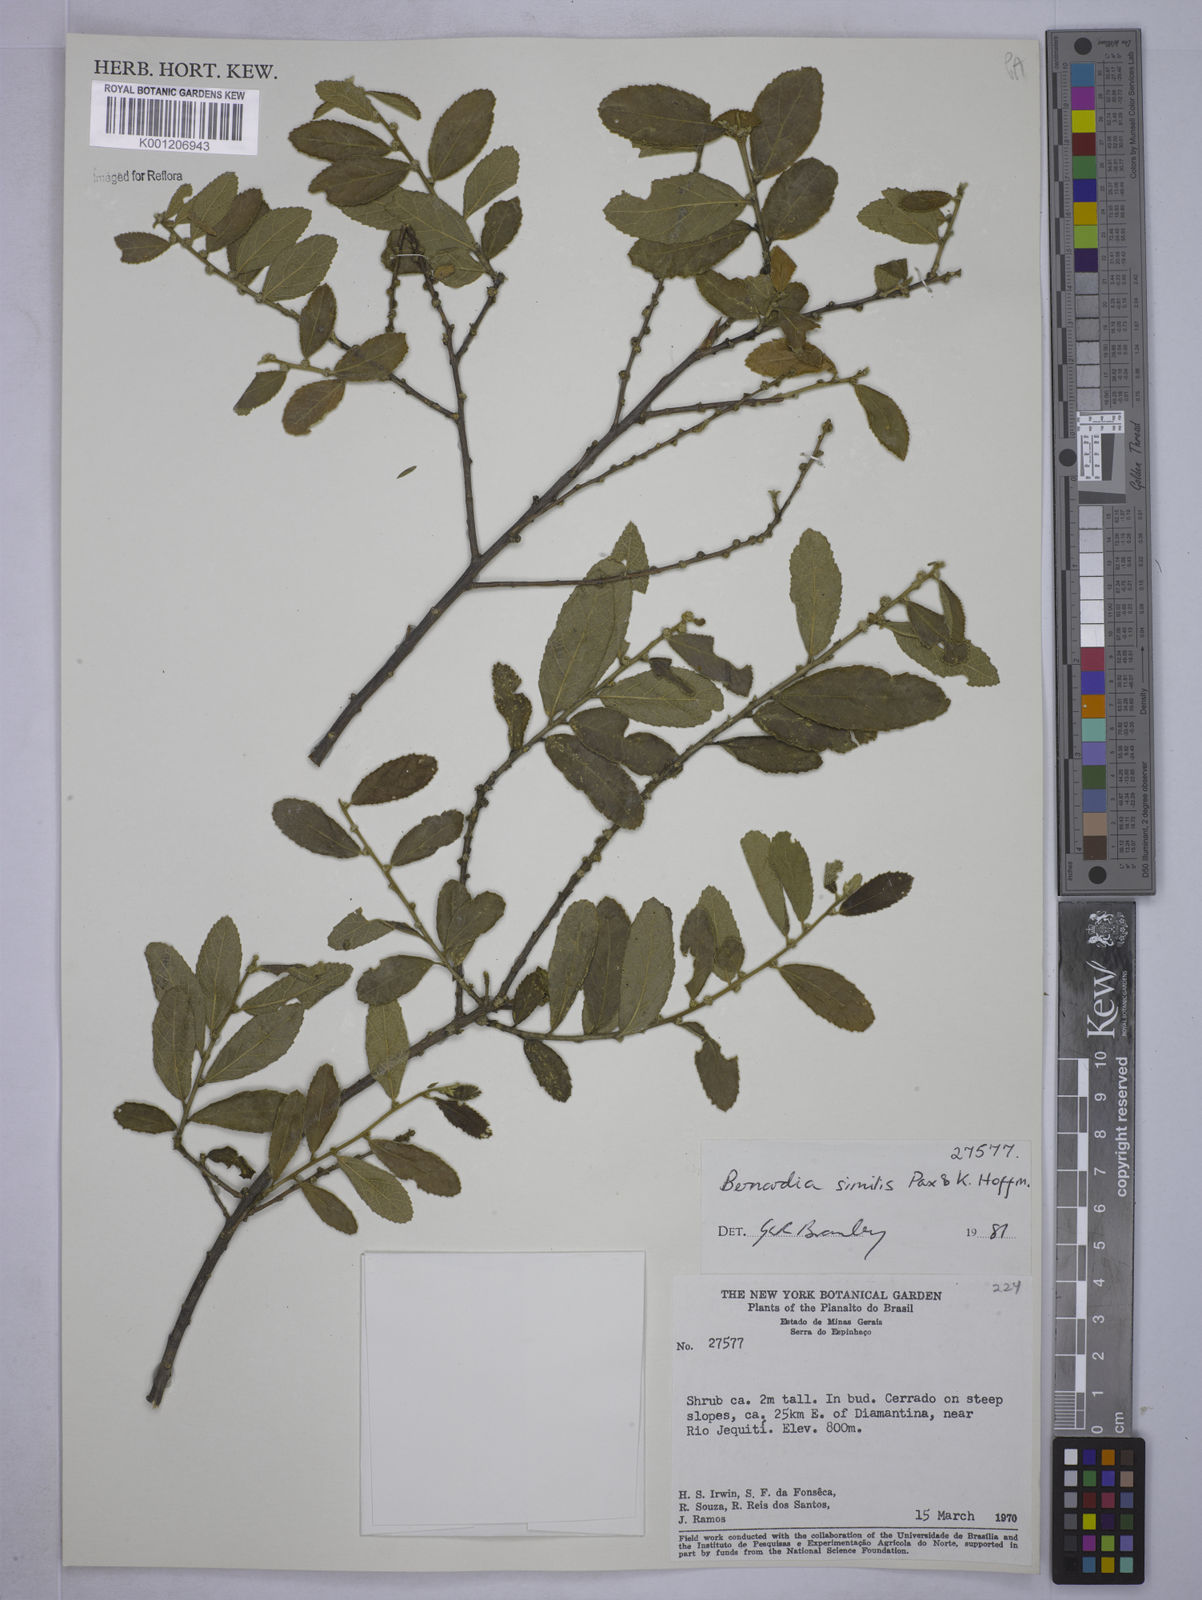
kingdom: Plantae
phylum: Tracheophyta
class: Magnoliopsida
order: Malpighiales
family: Euphorbiaceae
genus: Bernardia
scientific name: Bernardia similis
